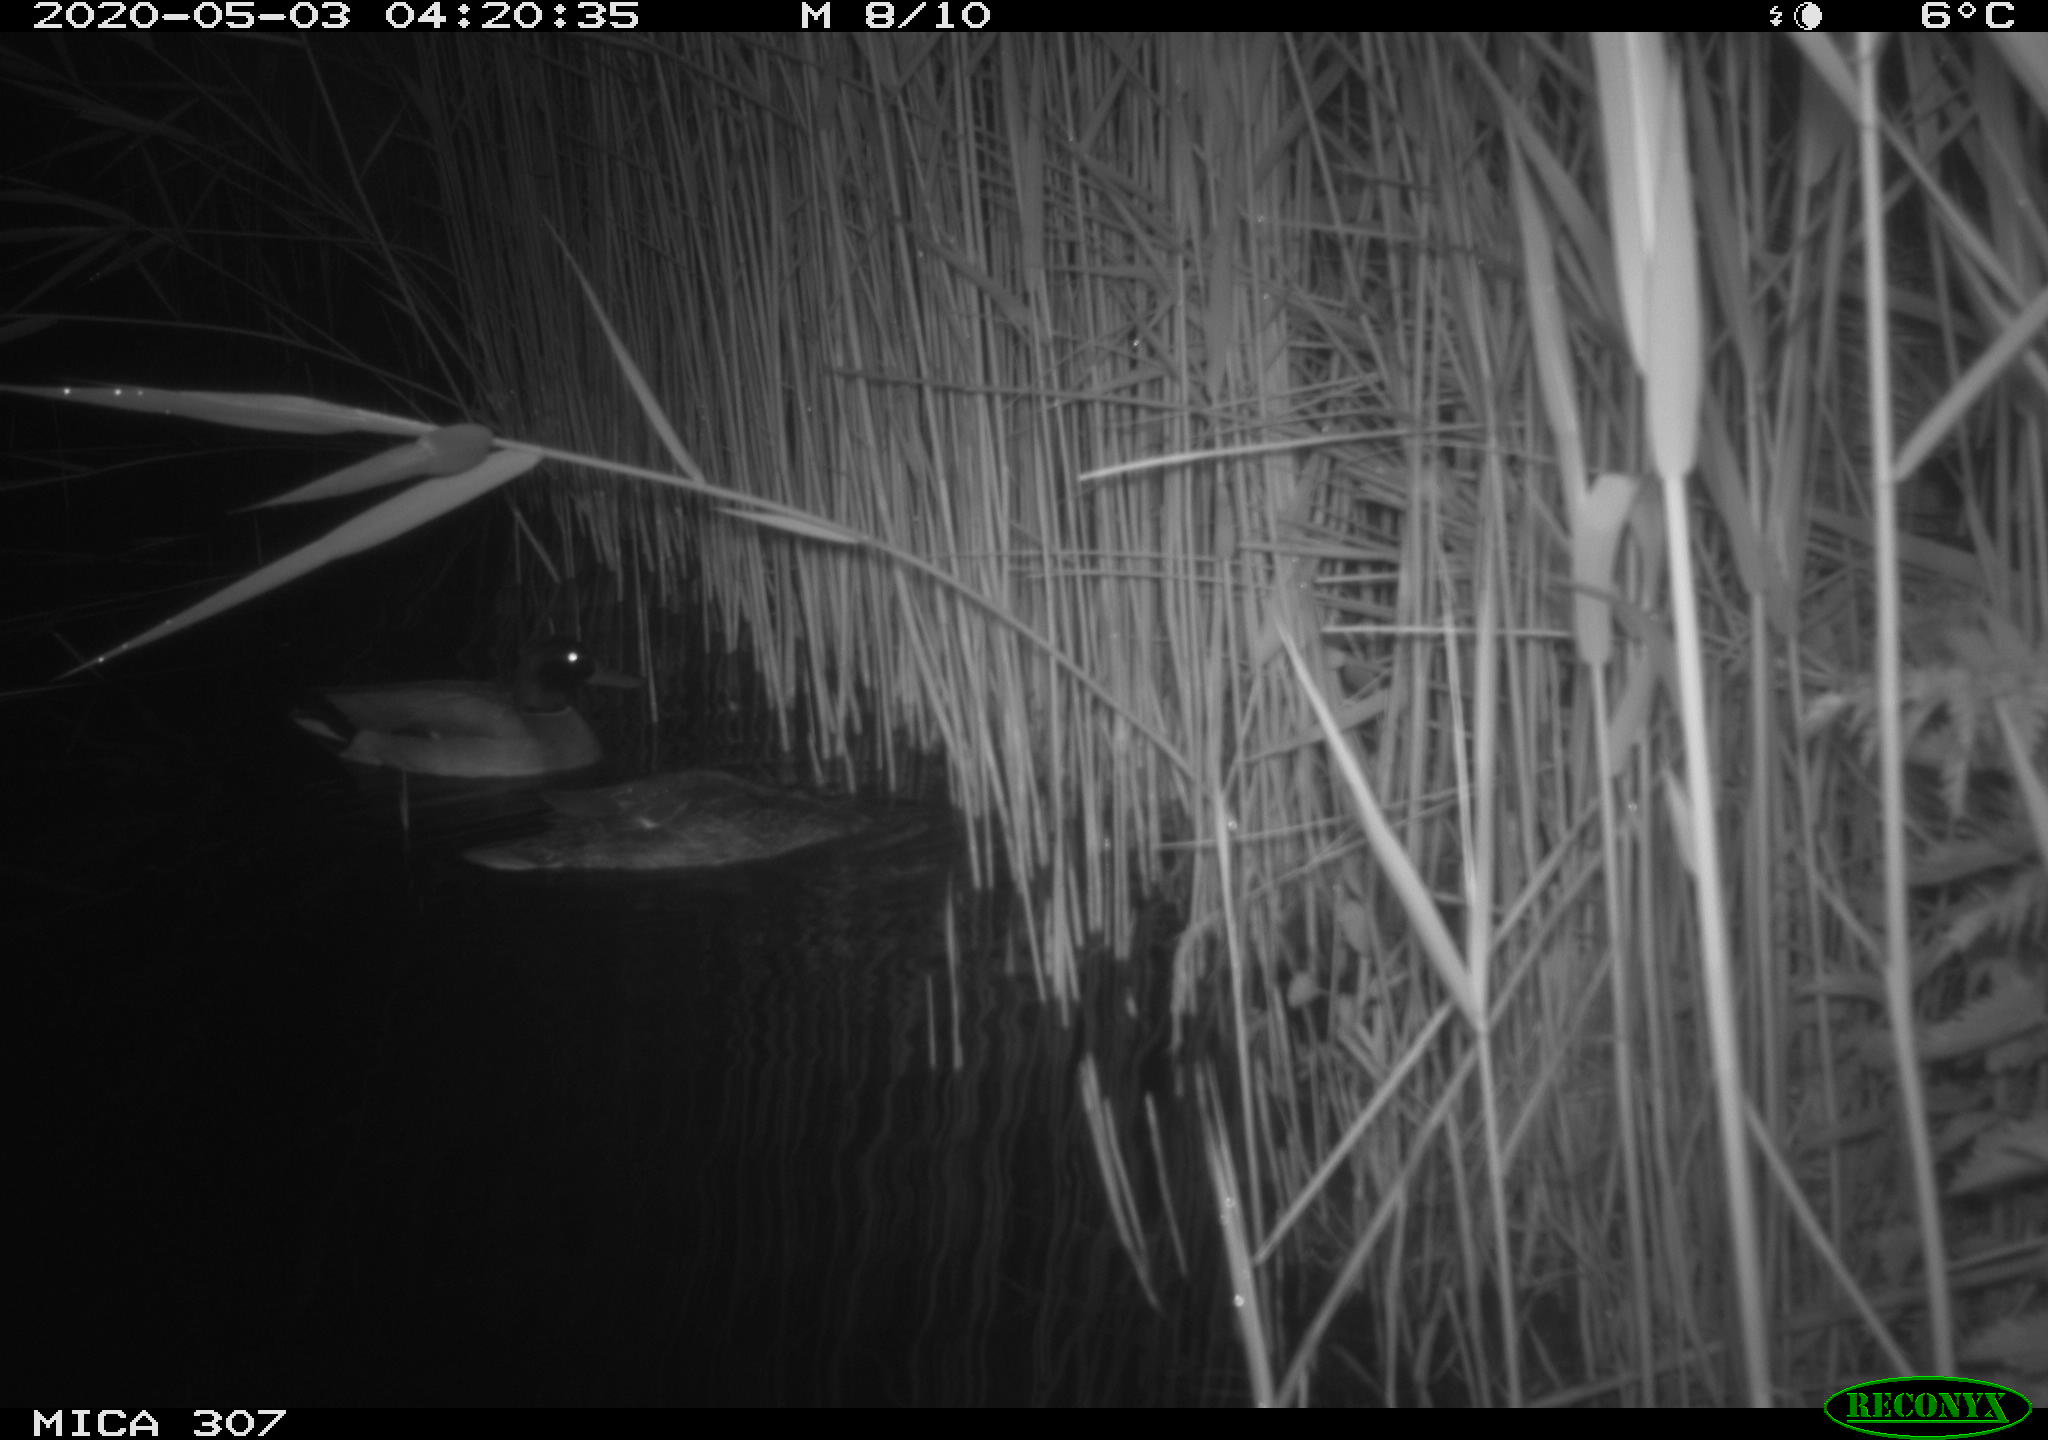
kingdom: Animalia
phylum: Chordata
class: Aves
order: Anseriformes
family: Anatidae
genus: Anas
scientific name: Anas platyrhynchos
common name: Mallard
